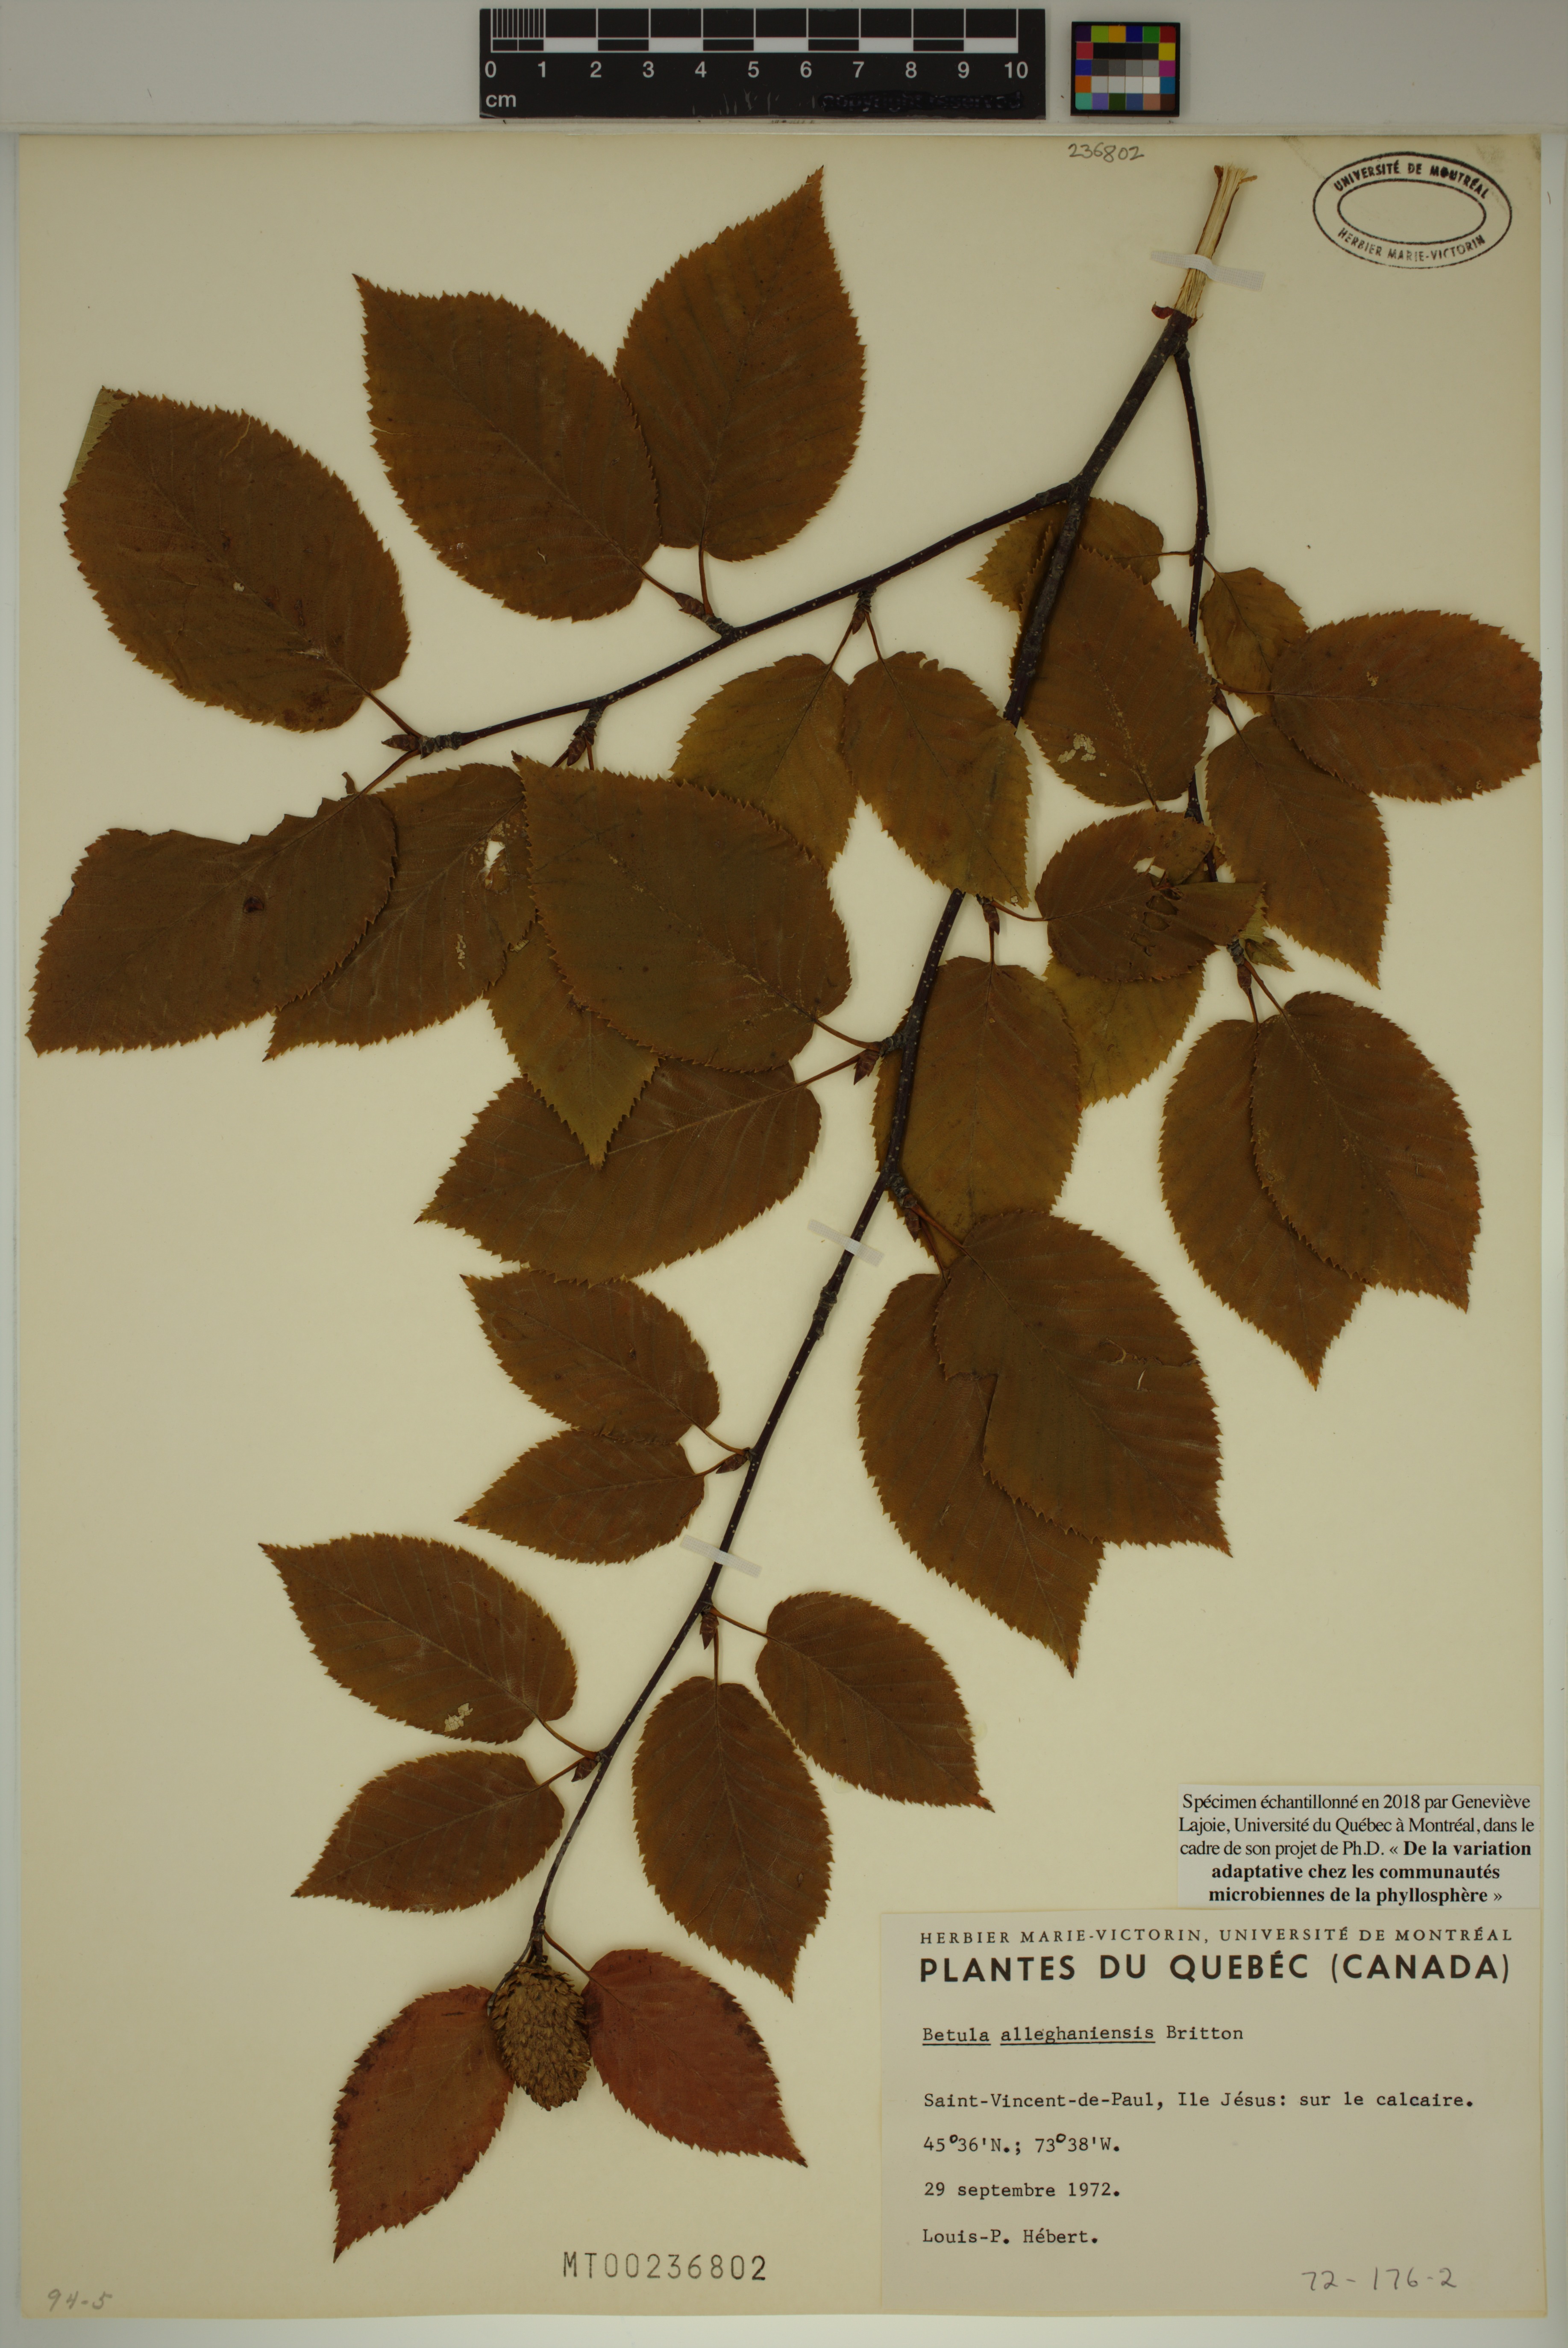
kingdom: Plantae
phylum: Tracheophyta
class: Magnoliopsida
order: Fagales
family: Betulaceae
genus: Betula
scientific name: Betula alleghaniensis
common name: Yellow birch
